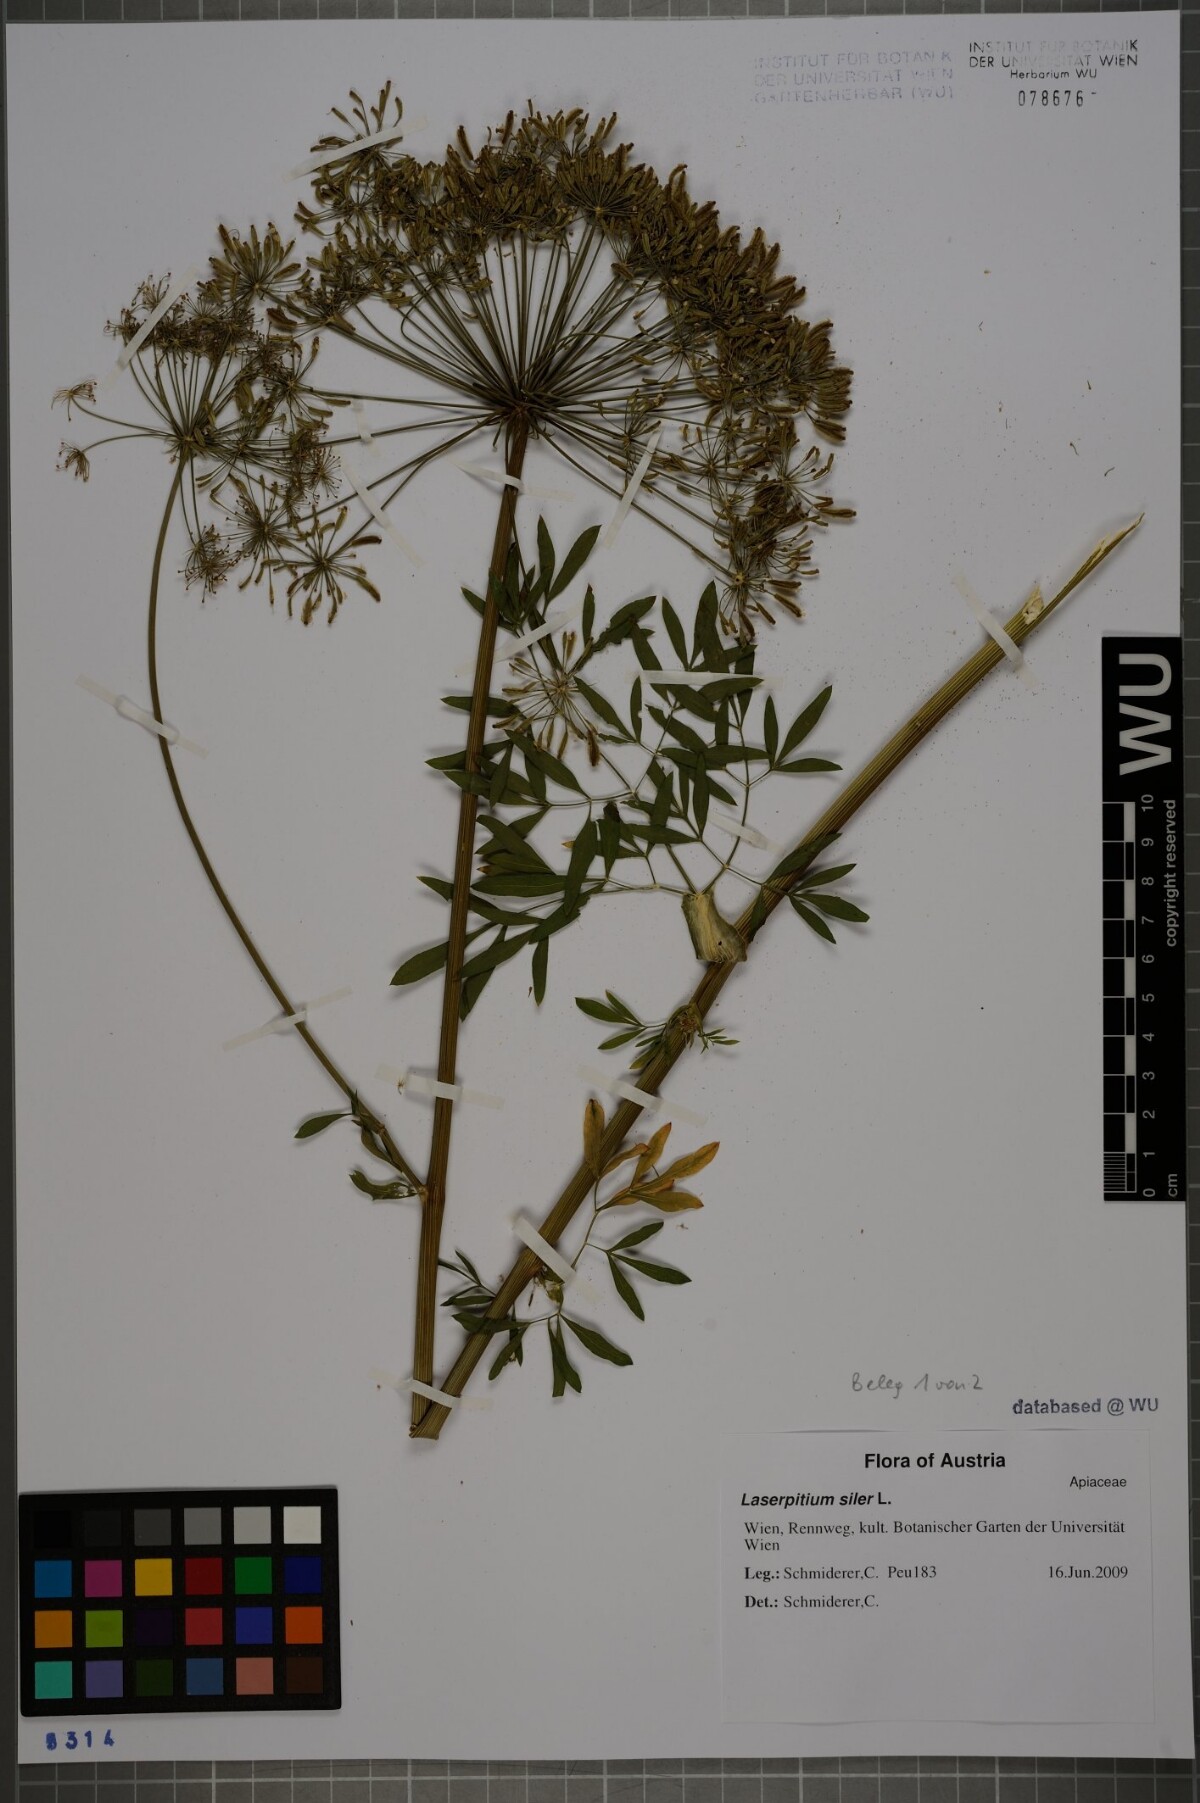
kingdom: Plantae
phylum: Tracheophyta
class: Magnoliopsida
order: Apiales
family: Apiaceae
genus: Siler
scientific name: Siler montanum
